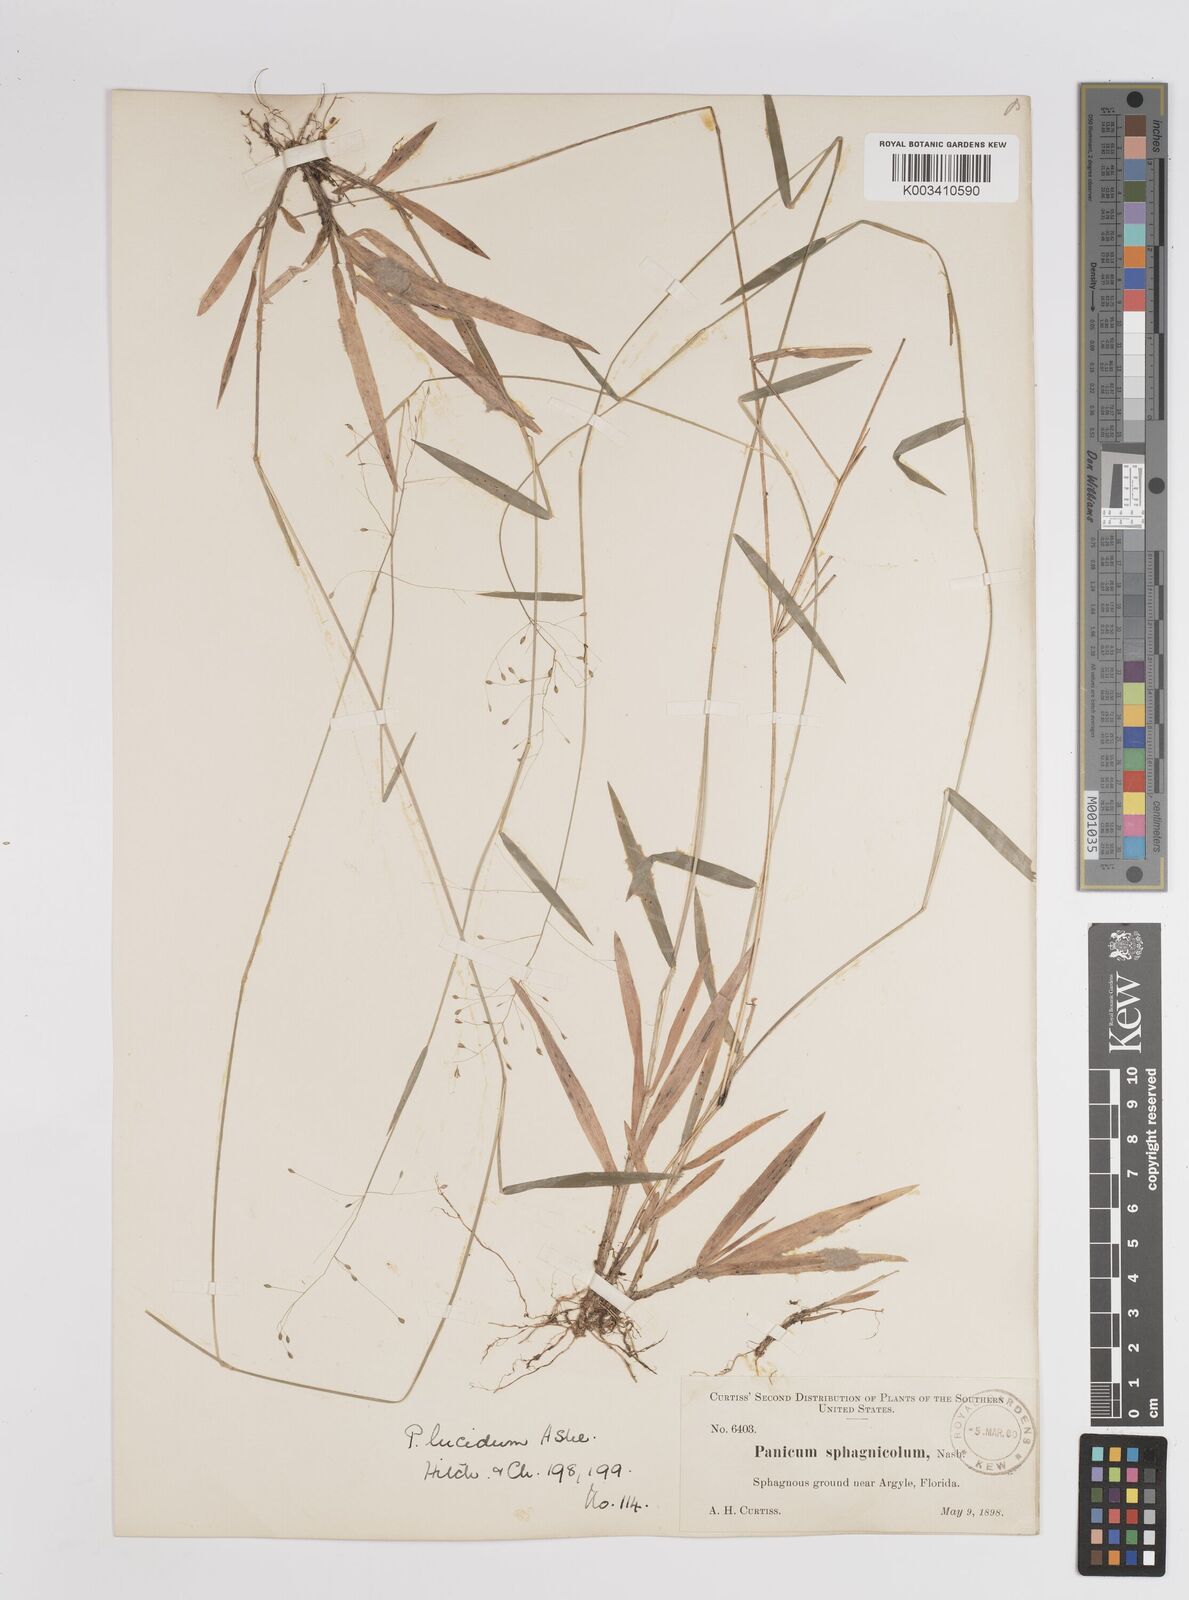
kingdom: Plantae
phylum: Tracheophyta
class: Liliopsida
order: Poales
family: Poaceae
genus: Dichanthelium
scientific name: Dichanthelium lucidum
